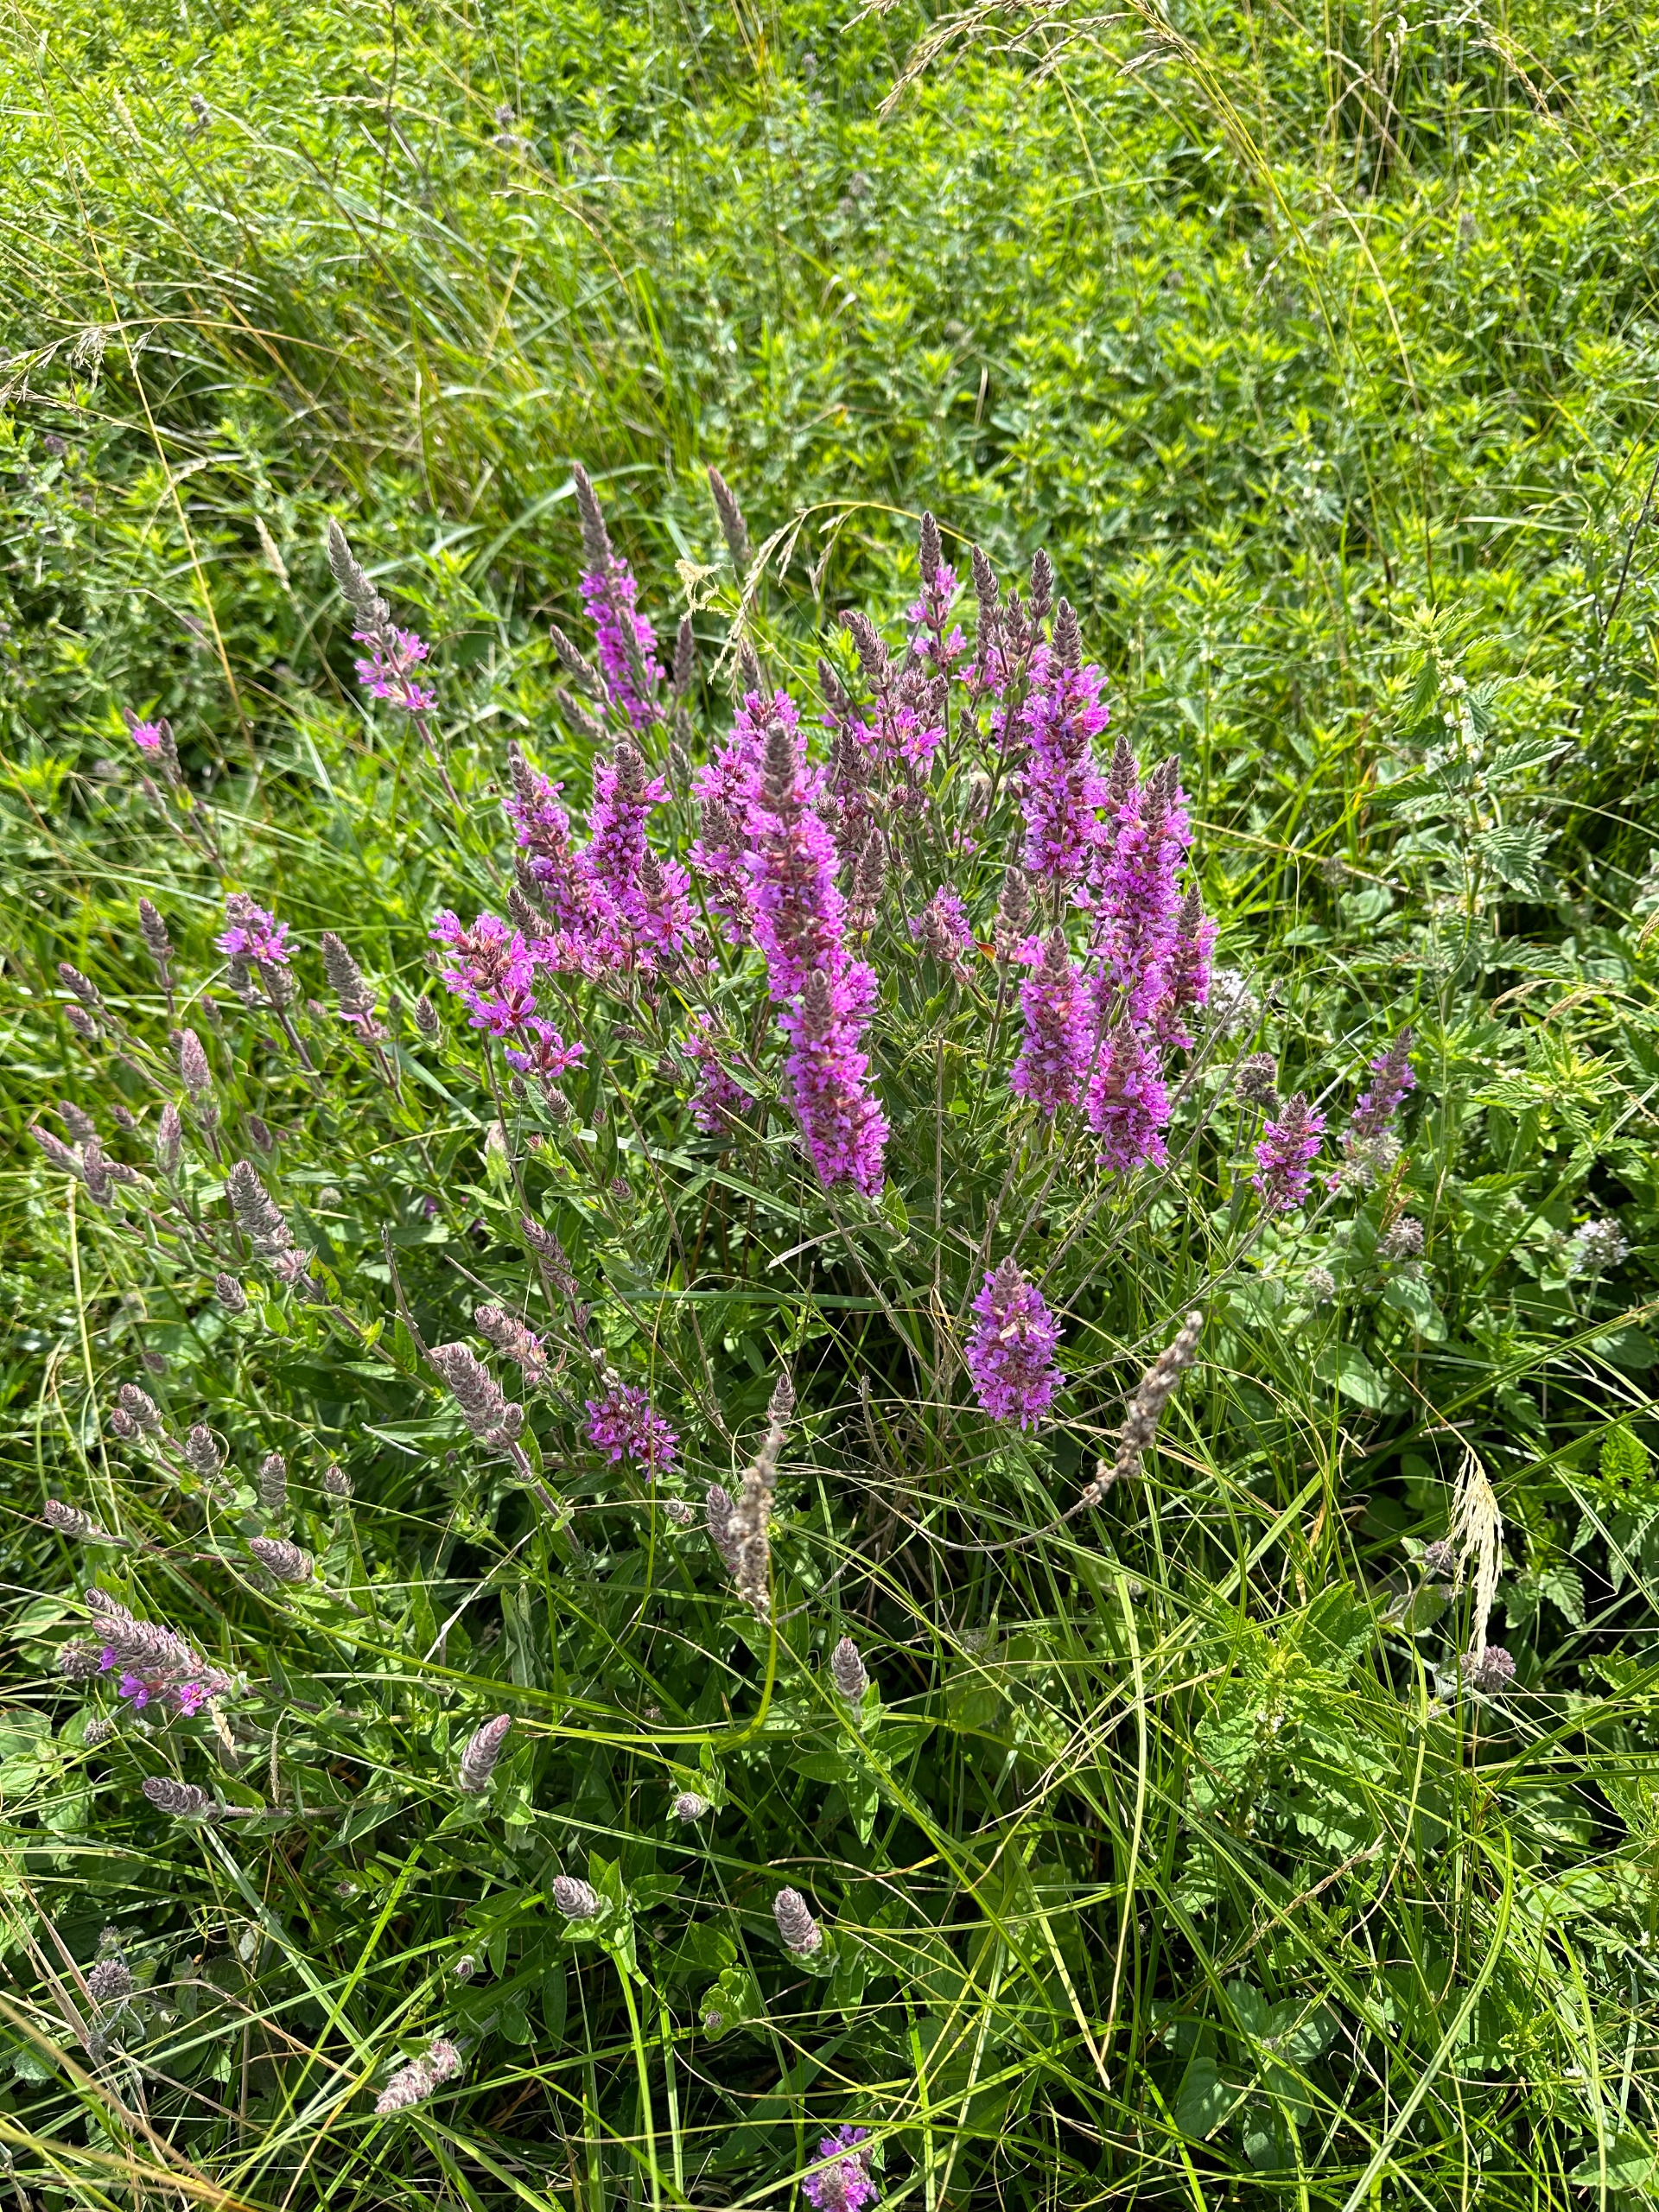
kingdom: Plantae
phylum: Tracheophyta
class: Magnoliopsida
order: Myrtales
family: Lythraceae
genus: Lythrum
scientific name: Lythrum salicaria
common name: Kattehale
